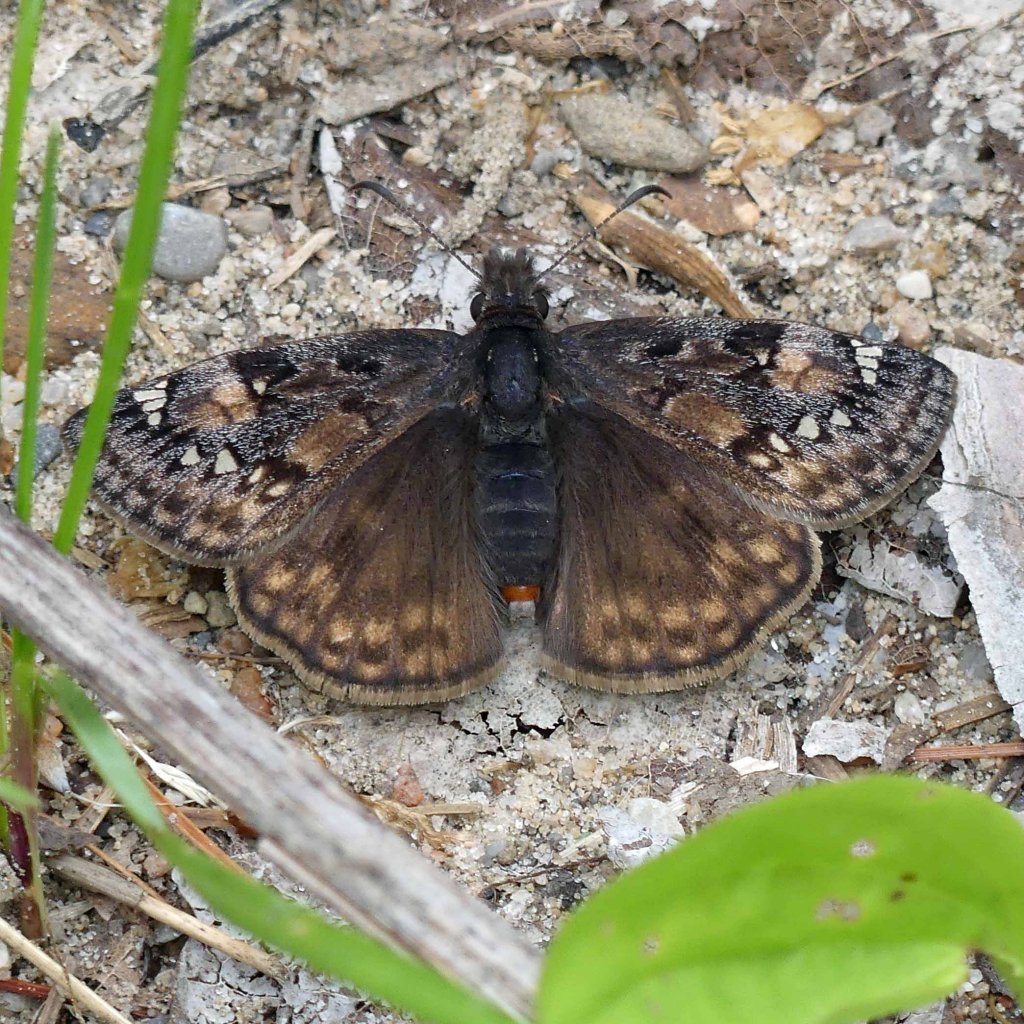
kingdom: Animalia
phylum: Arthropoda
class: Insecta
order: Lepidoptera
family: Hesperiidae
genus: Gesta
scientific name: Gesta
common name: Juvenal's Duskywing
